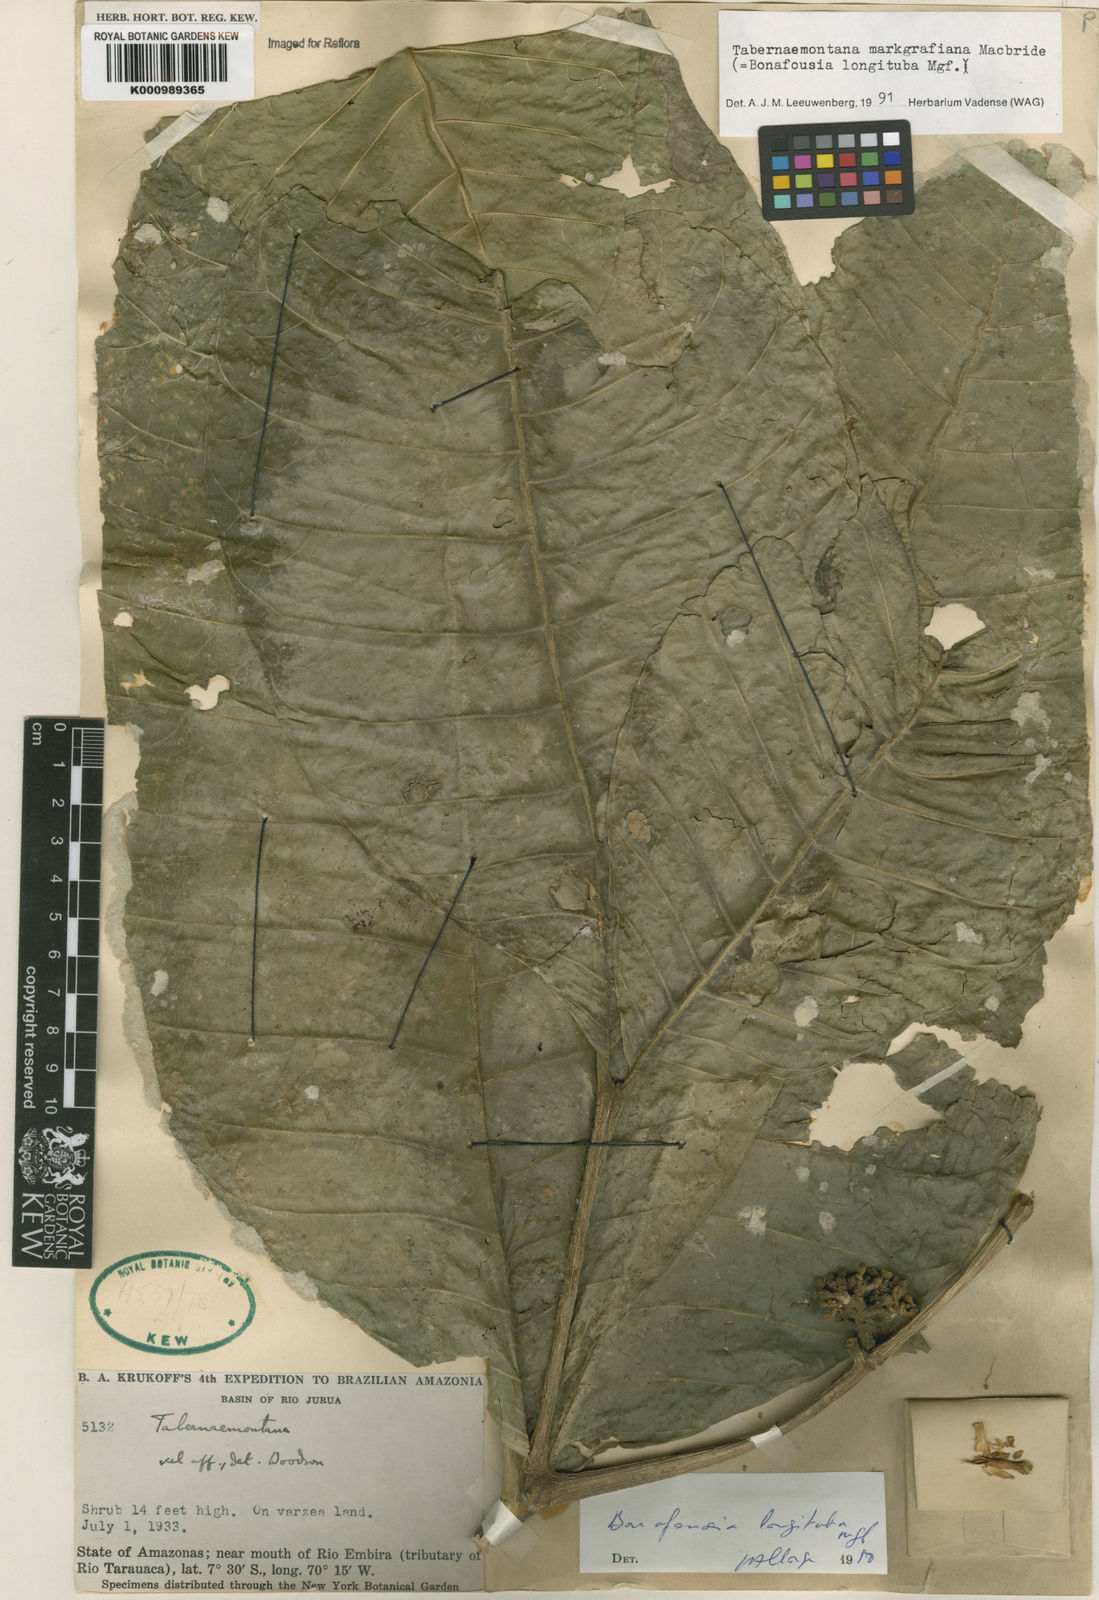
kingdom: Plantae
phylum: Tracheophyta
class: Magnoliopsida
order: Gentianales
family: Apocynaceae
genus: Tabernaemontana
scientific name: Tabernaemontana markgrafiana
